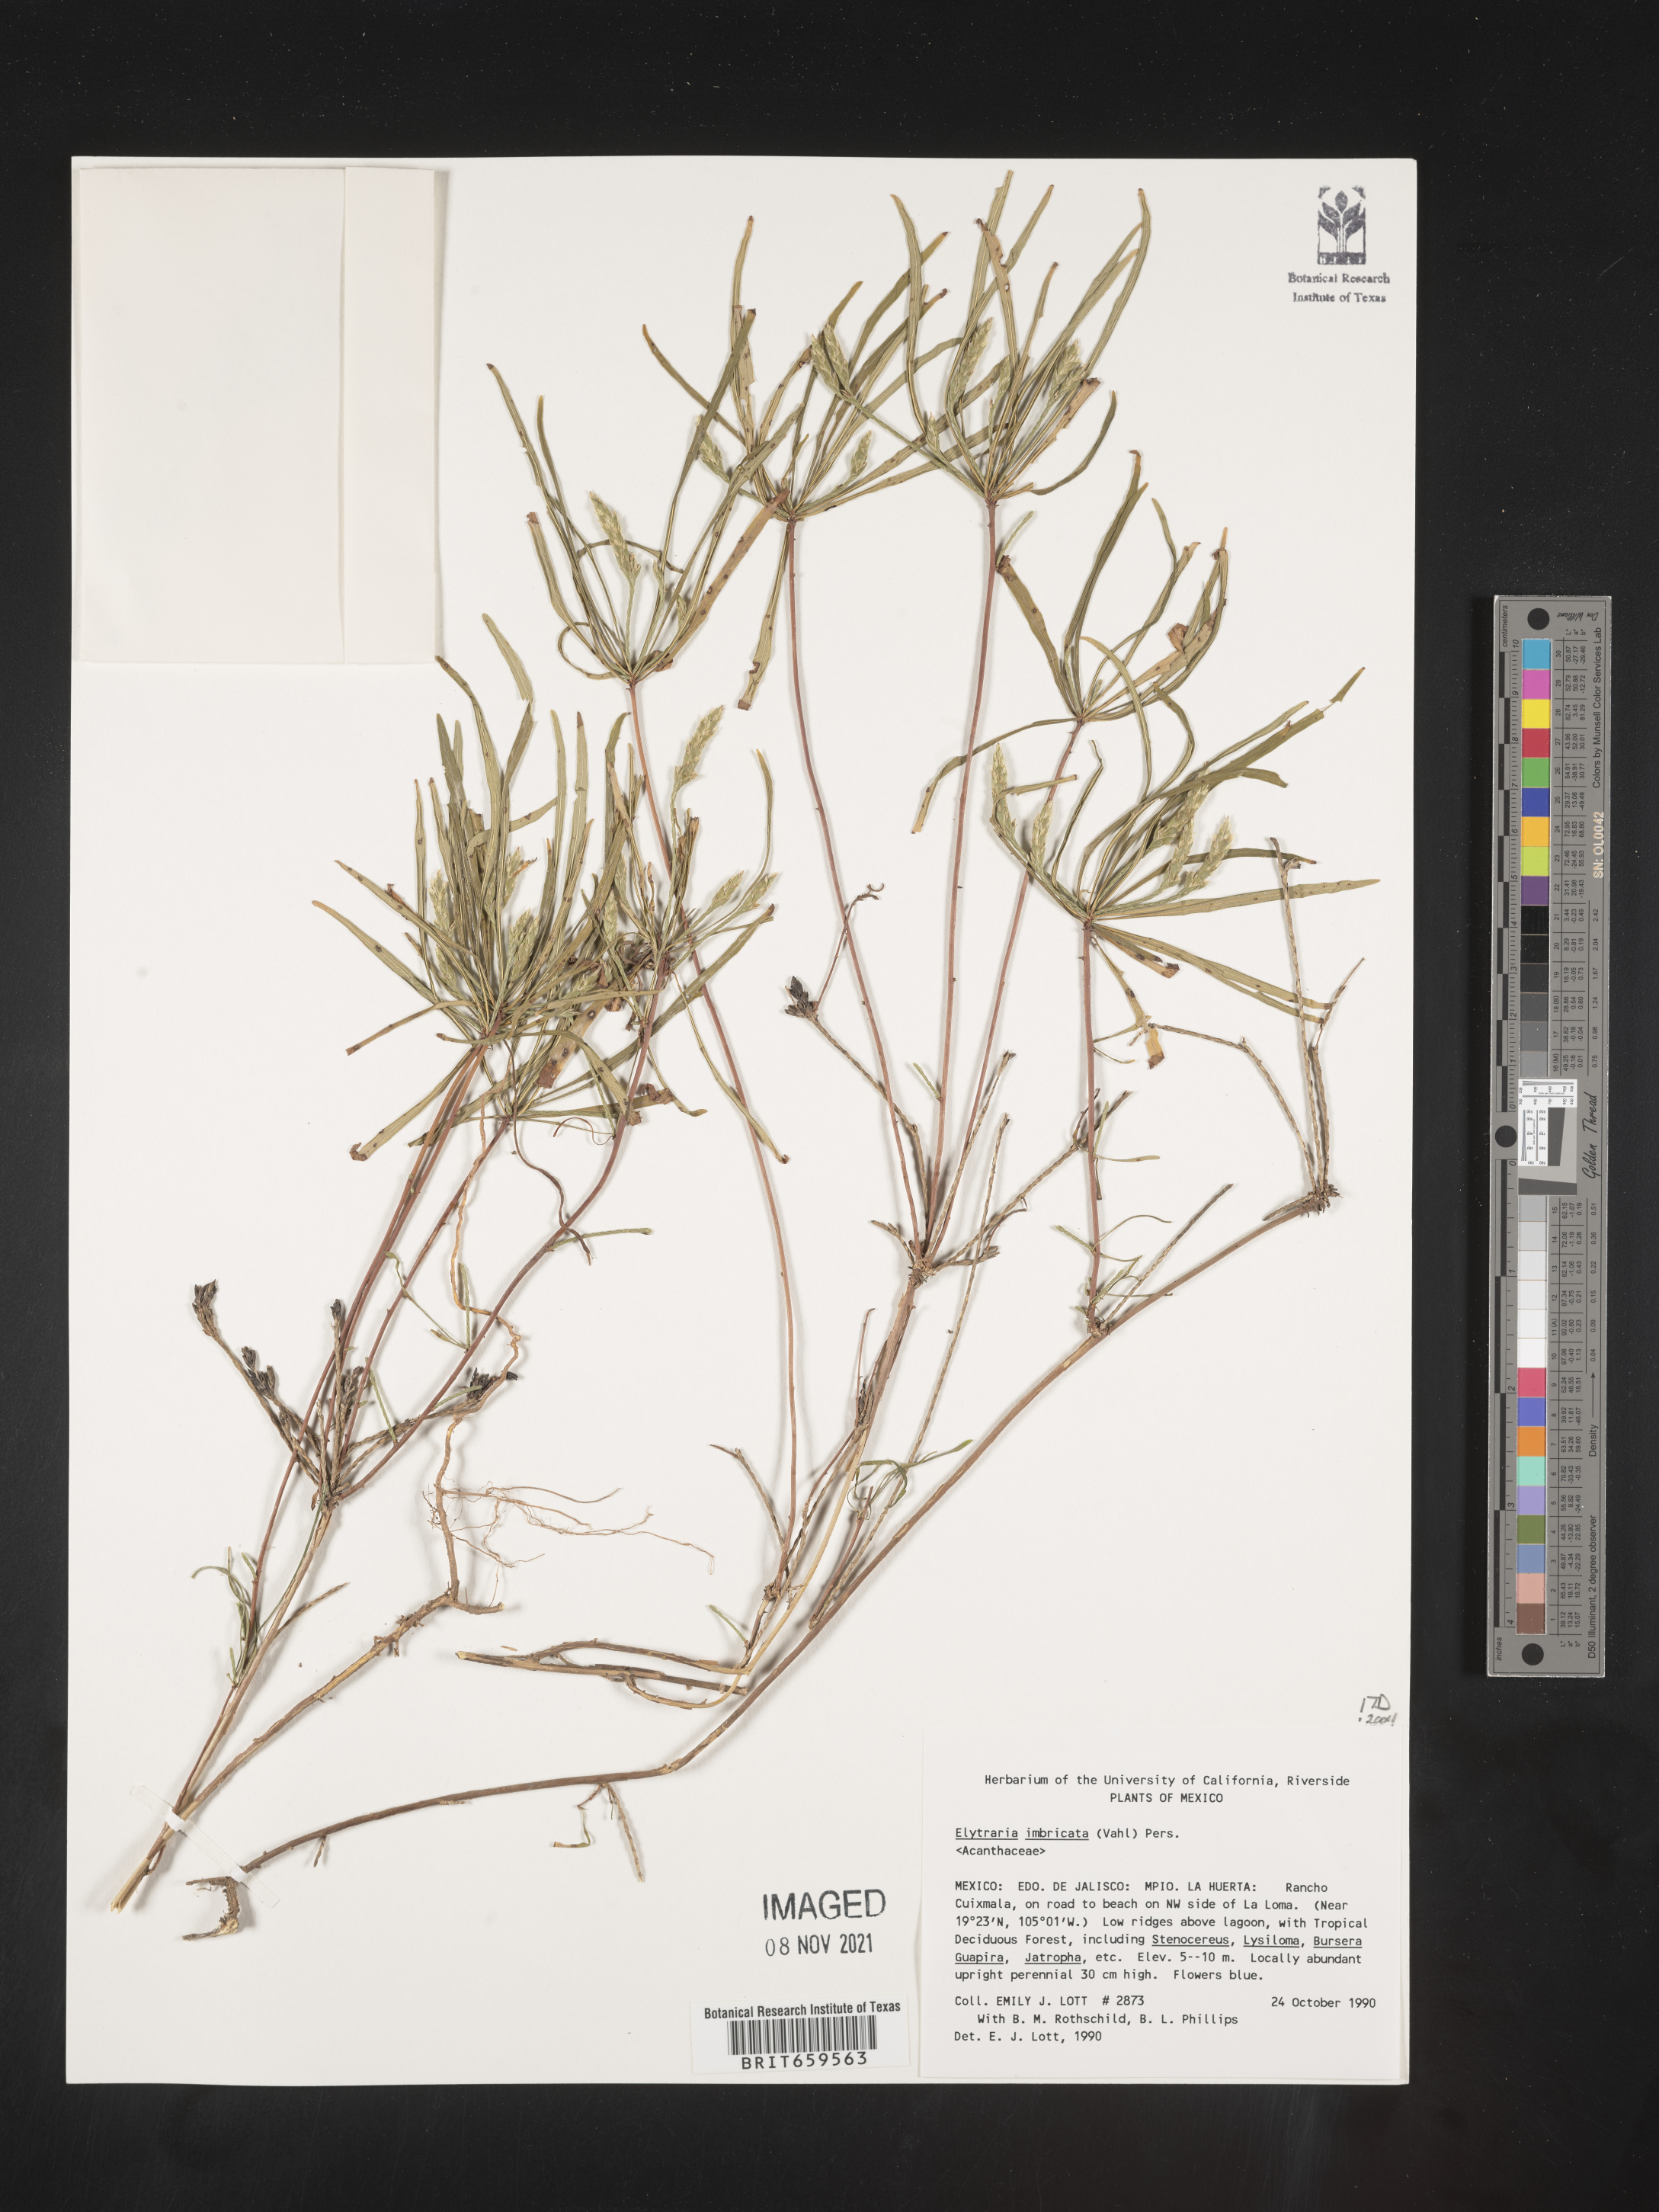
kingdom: Plantae
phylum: Tracheophyta
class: Magnoliopsida
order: Lamiales
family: Acanthaceae
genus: Elytraria
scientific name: Elytraria imbricata
